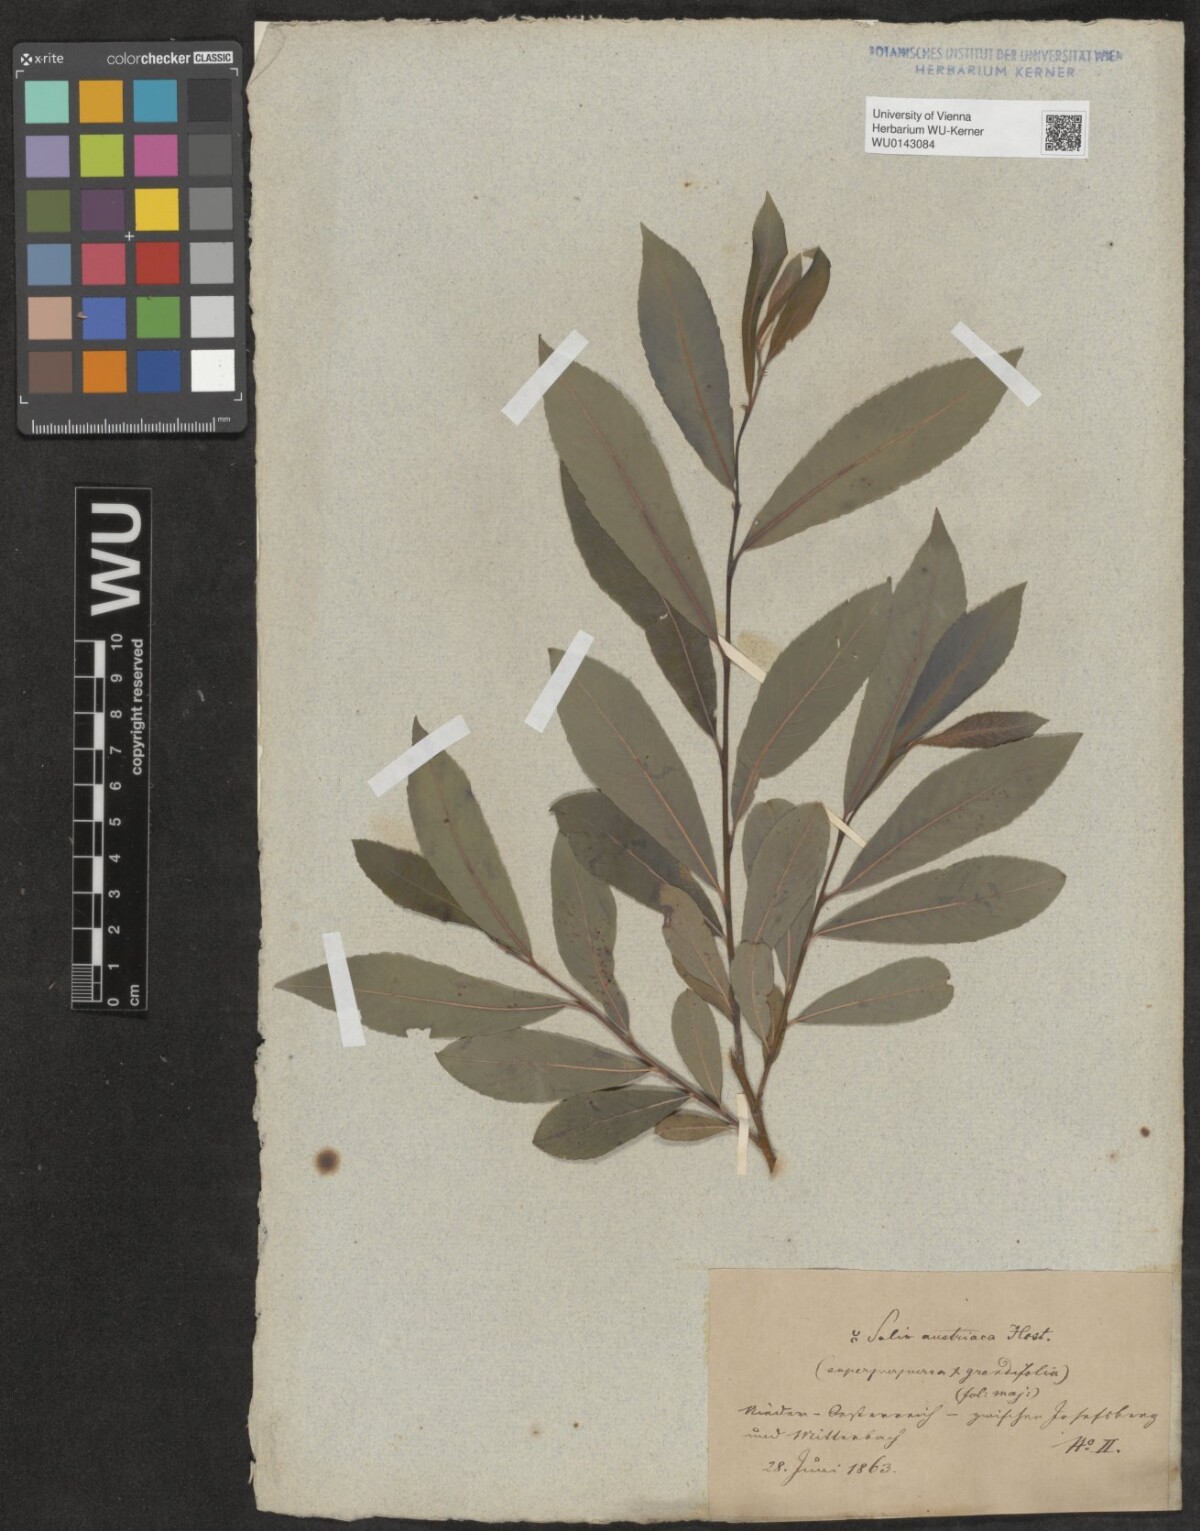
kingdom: Plantae
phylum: Tracheophyta
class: Magnoliopsida
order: Malpighiales
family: Salicaceae
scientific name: Salicaceae
